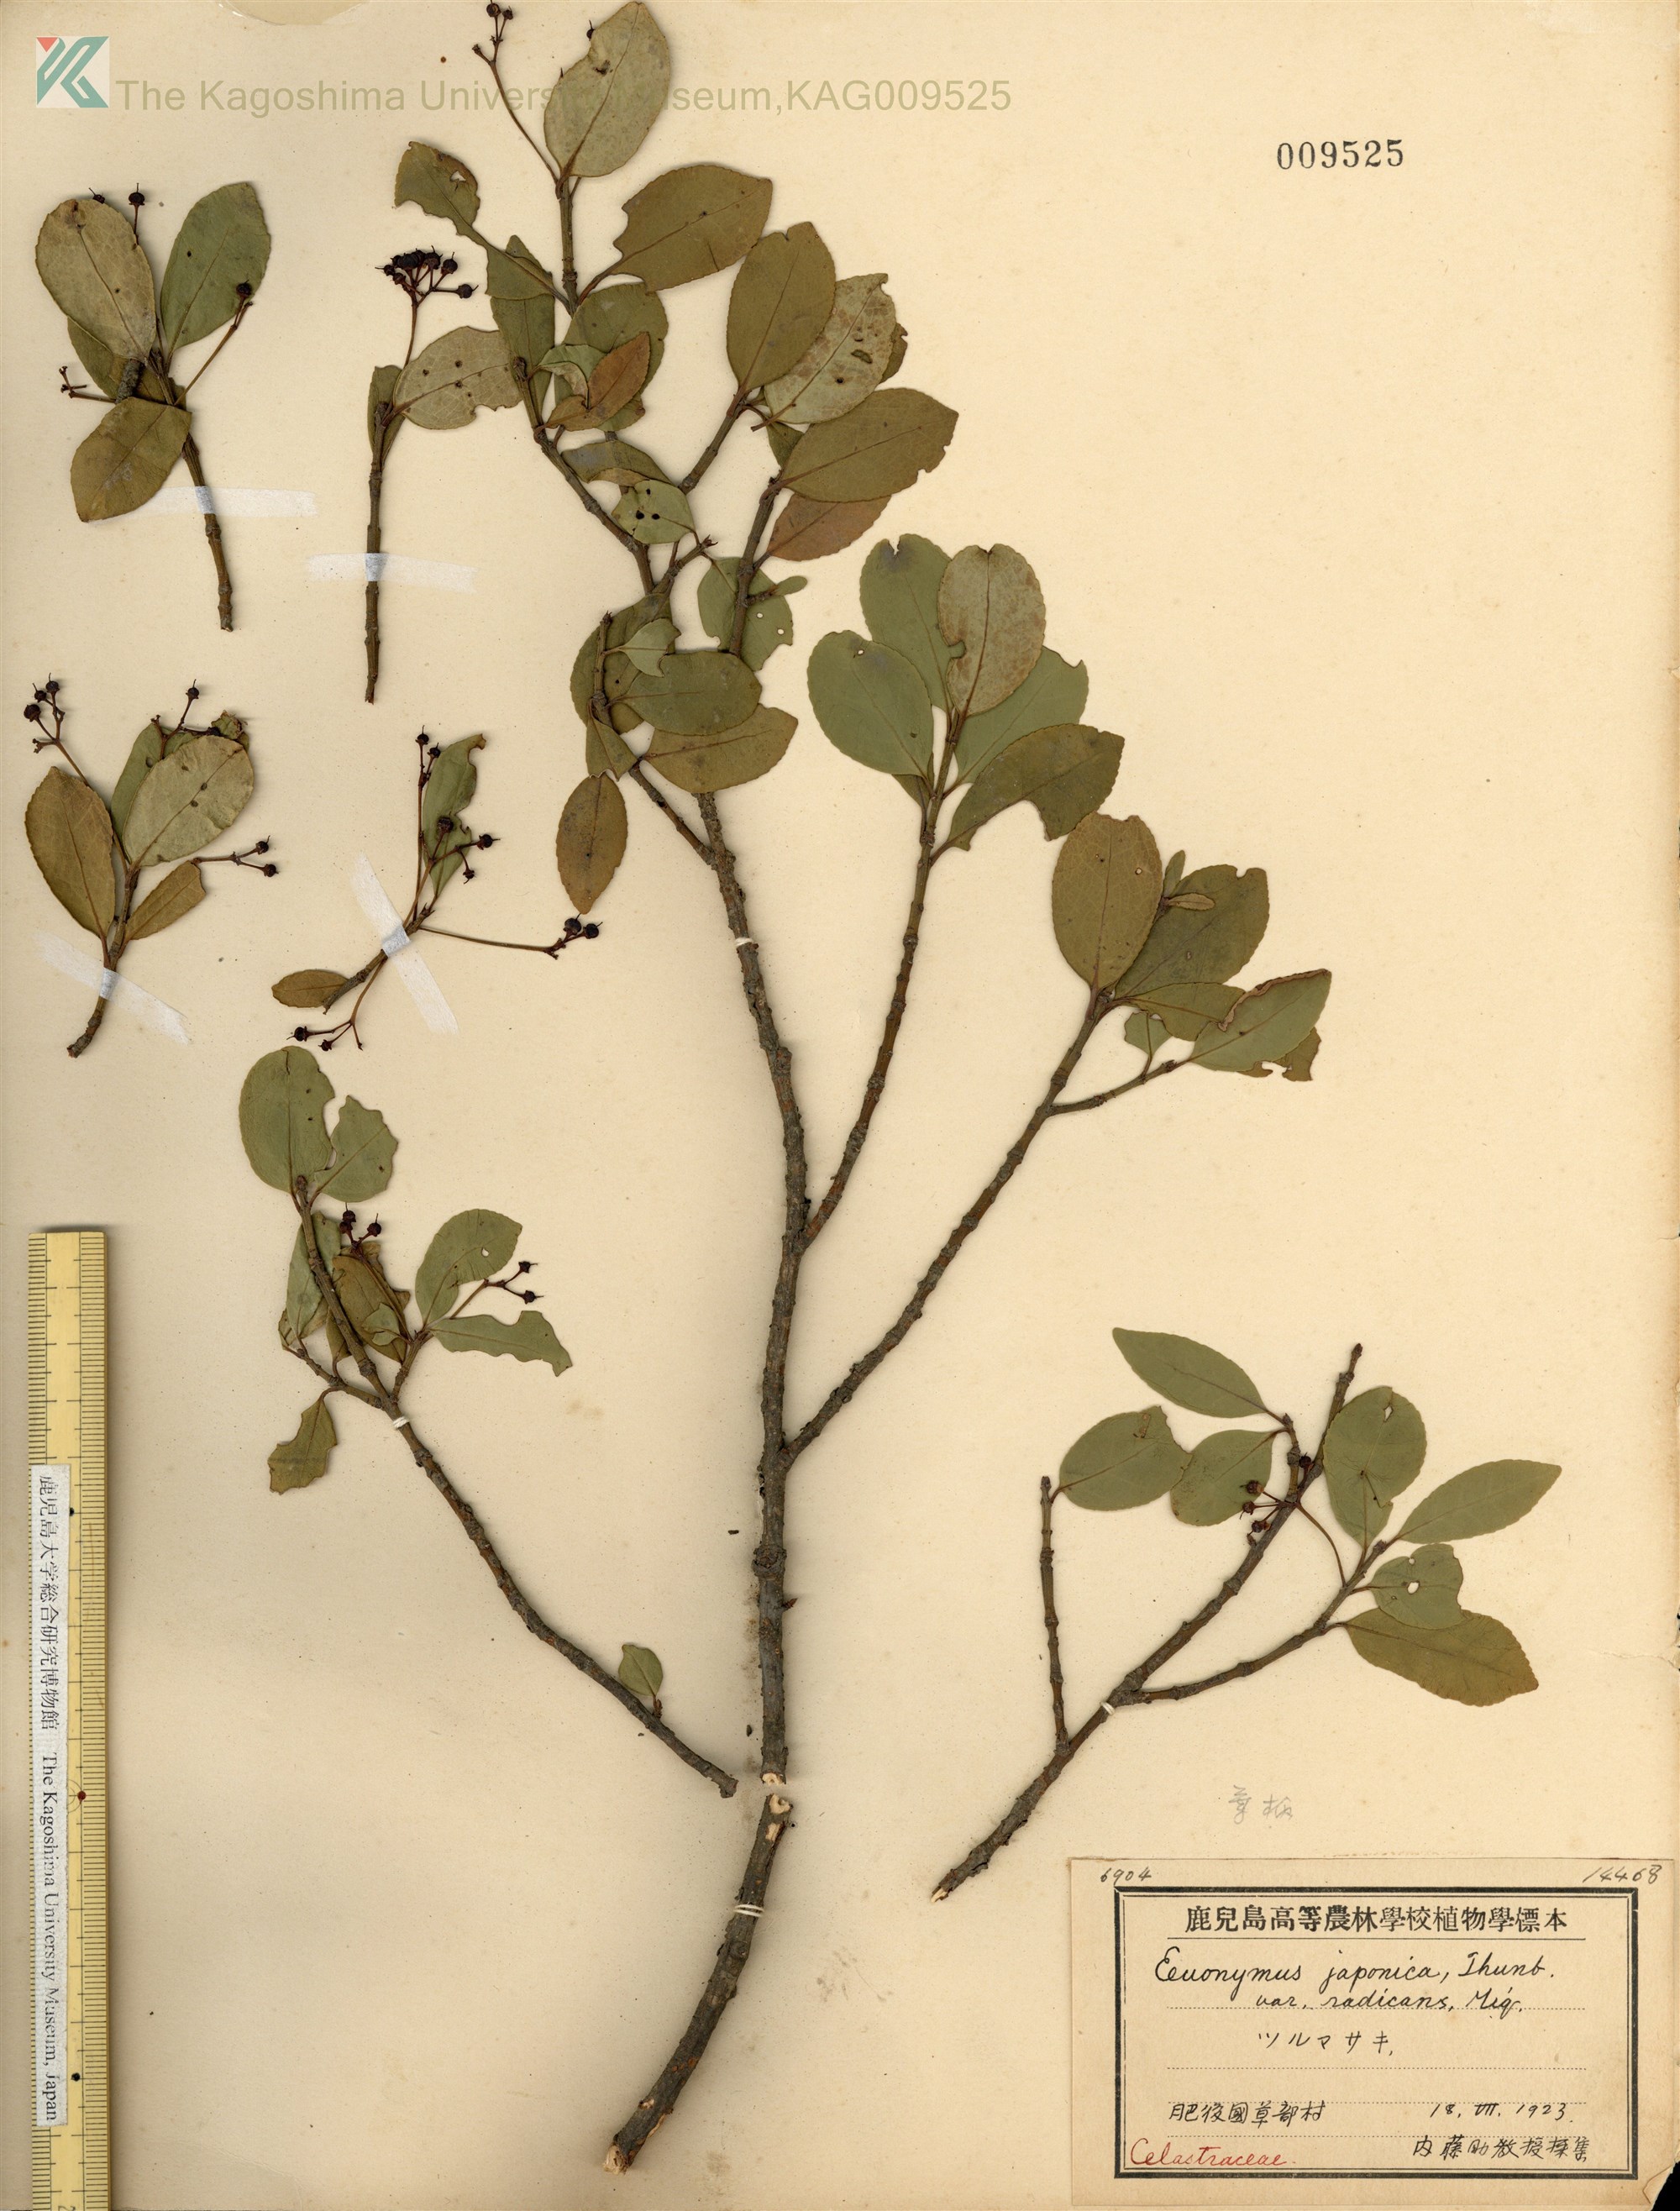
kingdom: Plantae
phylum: Tracheophyta
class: Magnoliopsida
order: Celastrales
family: Celastraceae
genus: Euonymus
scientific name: Euonymus fortunei
